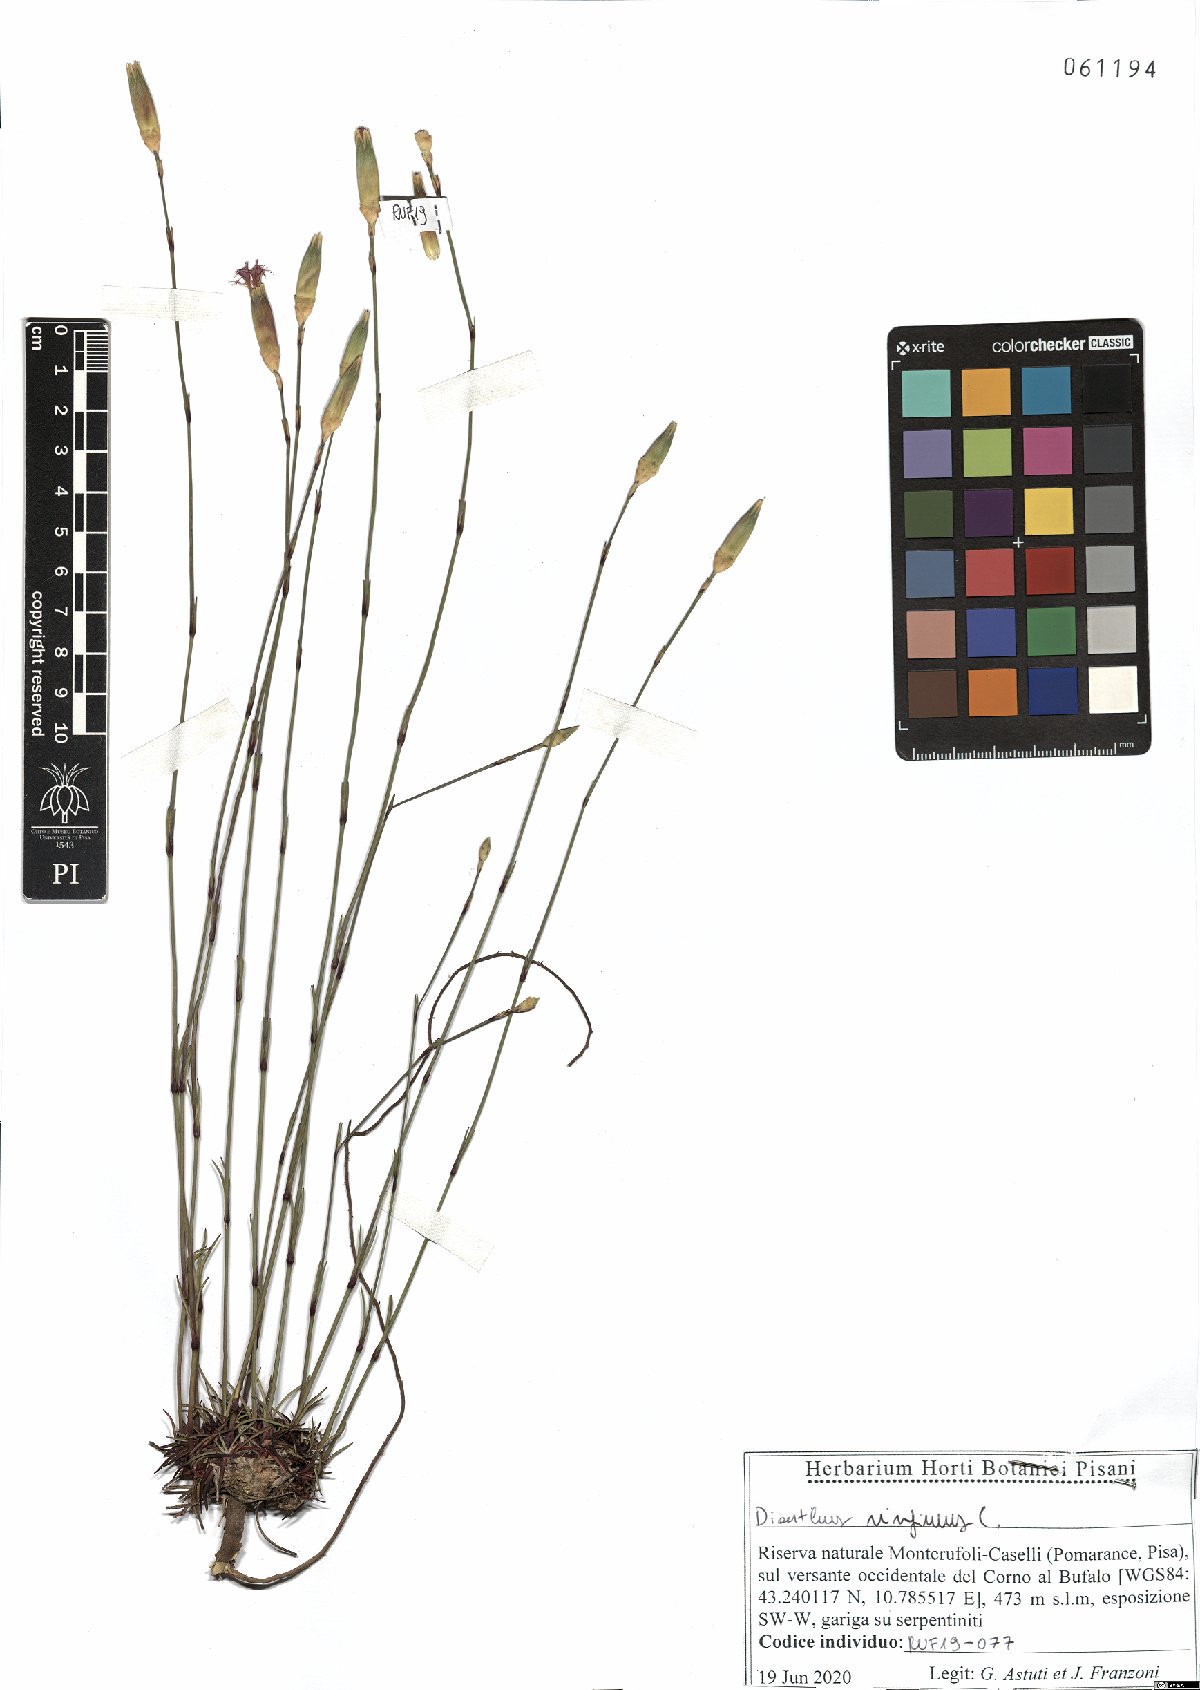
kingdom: Plantae
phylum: Tracheophyta
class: Magnoliopsida
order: Caryophyllales
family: Caryophyllaceae
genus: Dianthus
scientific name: Dianthus virgineus
